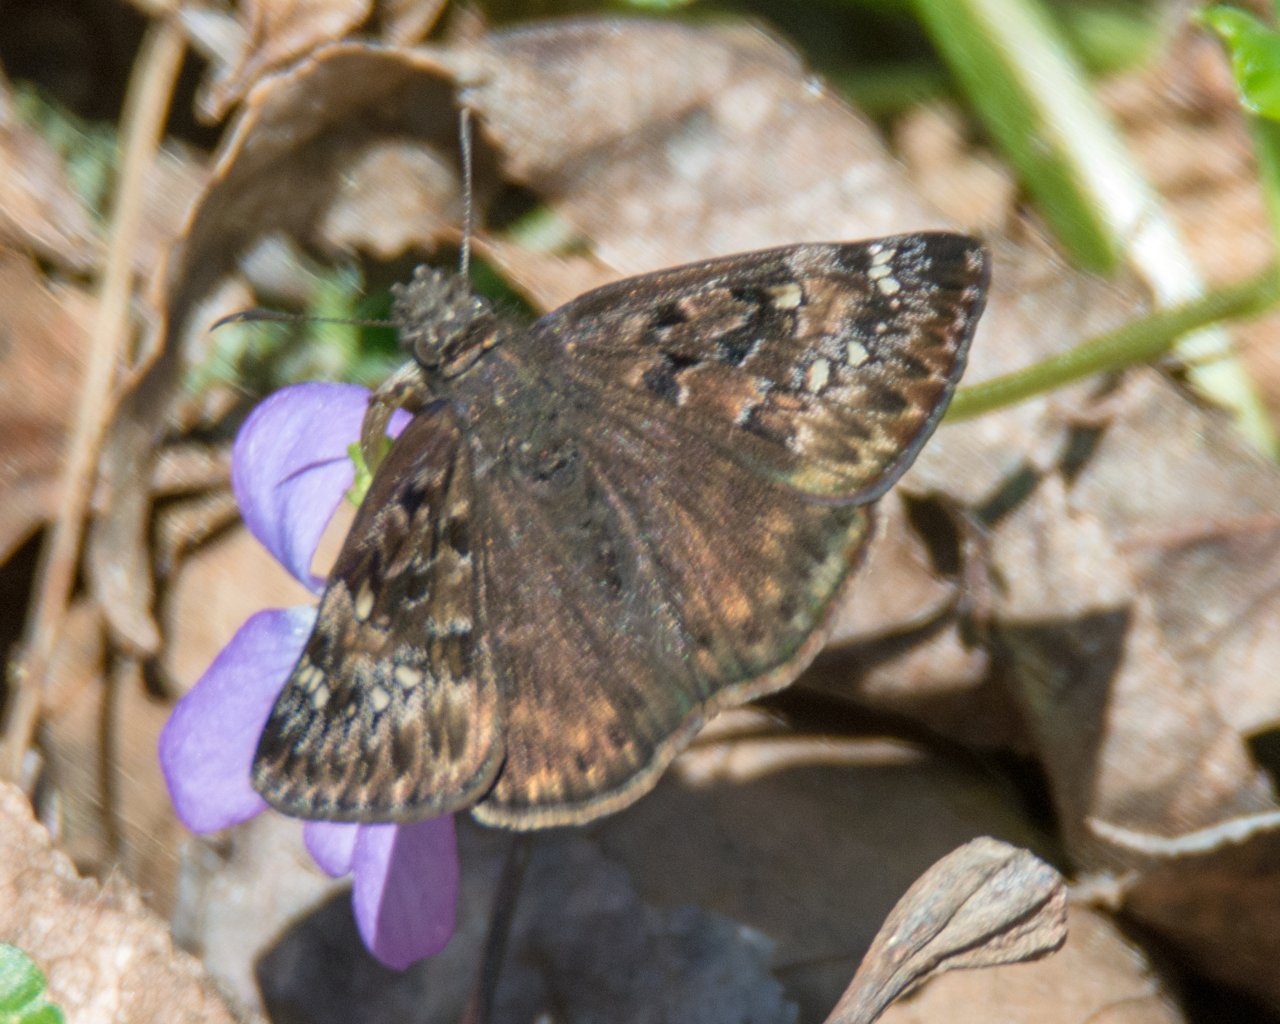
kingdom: Animalia
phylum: Arthropoda
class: Insecta
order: Lepidoptera
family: Hesperiidae
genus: Gesta
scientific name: Gesta
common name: Horace's Duskywing
